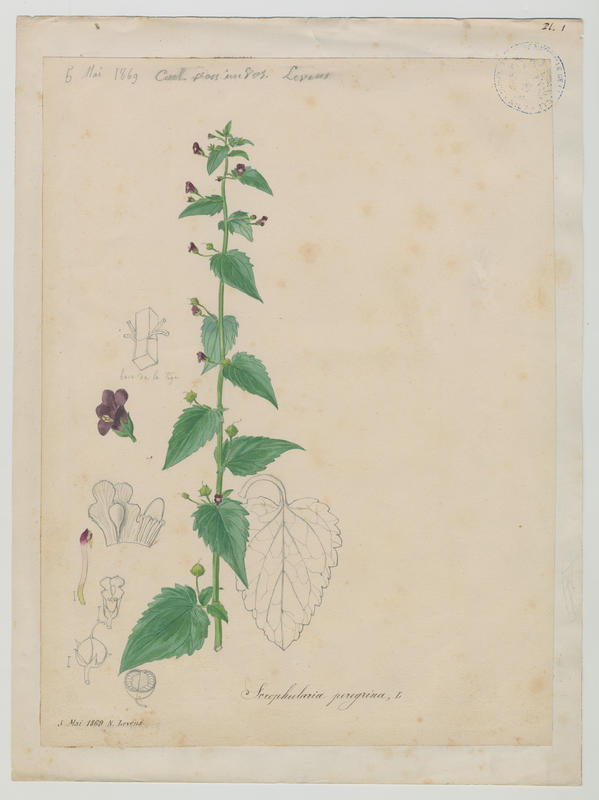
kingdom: Plantae
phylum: Tracheophyta
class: Magnoliopsida
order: Lamiales
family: Scrophulariaceae
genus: Scrophularia
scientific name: Scrophularia peregrina
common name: Mediterranean figwort
